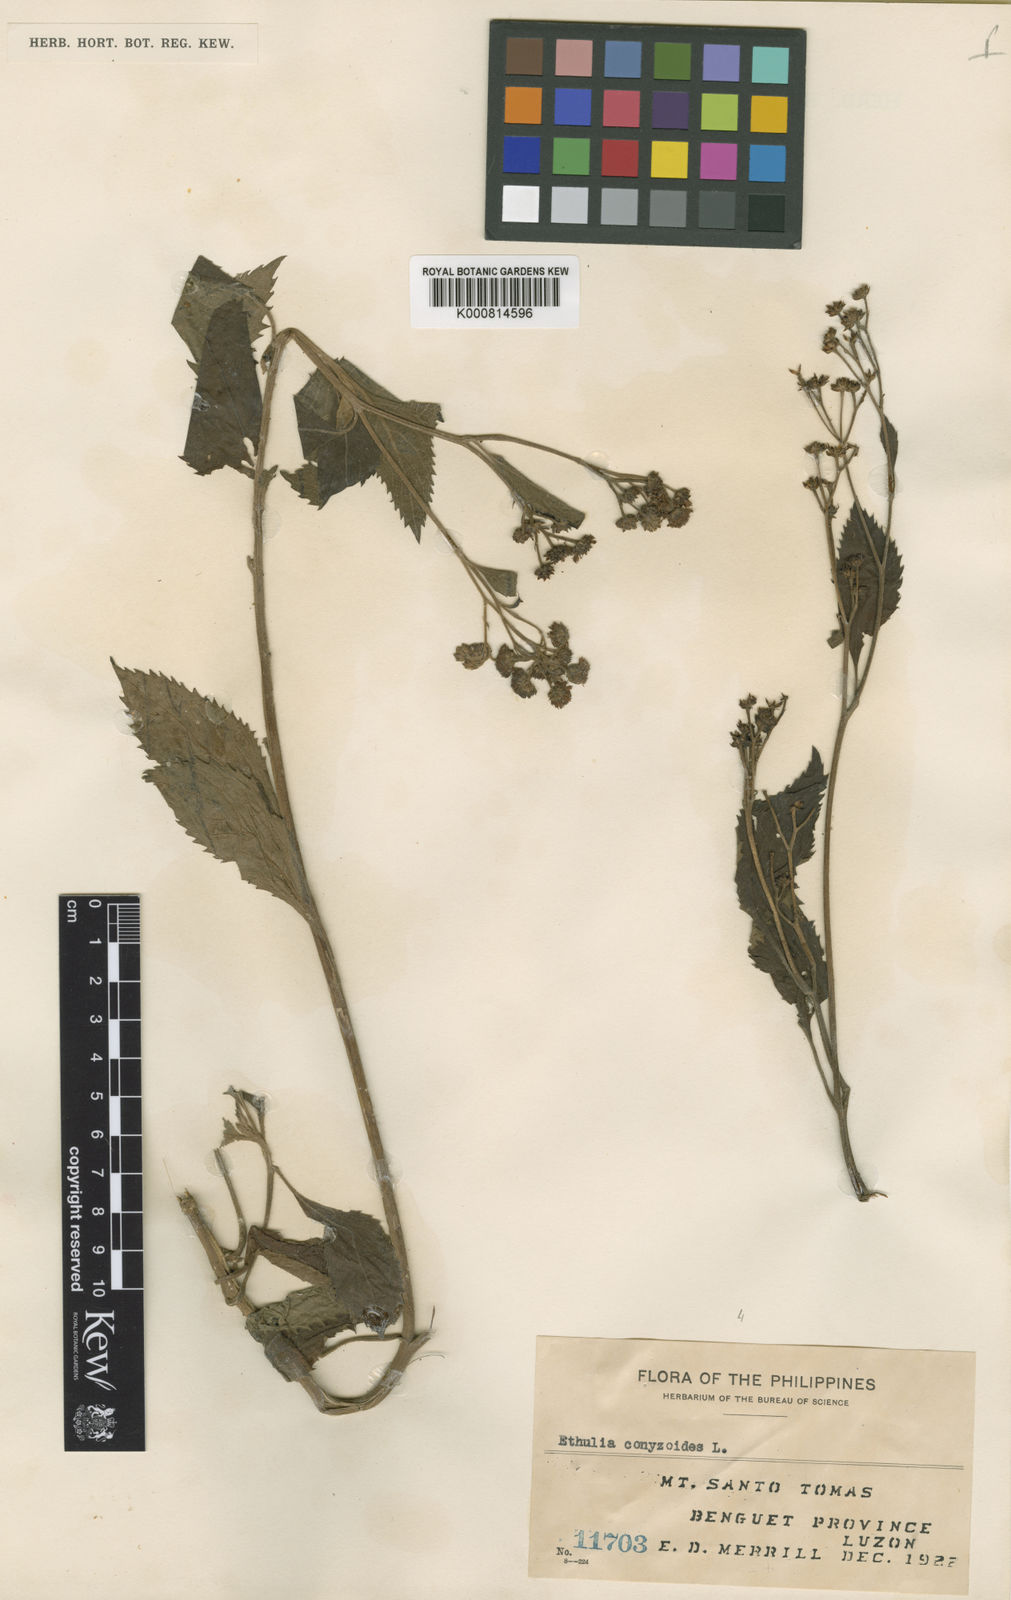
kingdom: Plantae
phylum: Tracheophyta
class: Magnoliopsida
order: Asterales
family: Asteraceae
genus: Ethulia
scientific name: Ethulia luzonica
